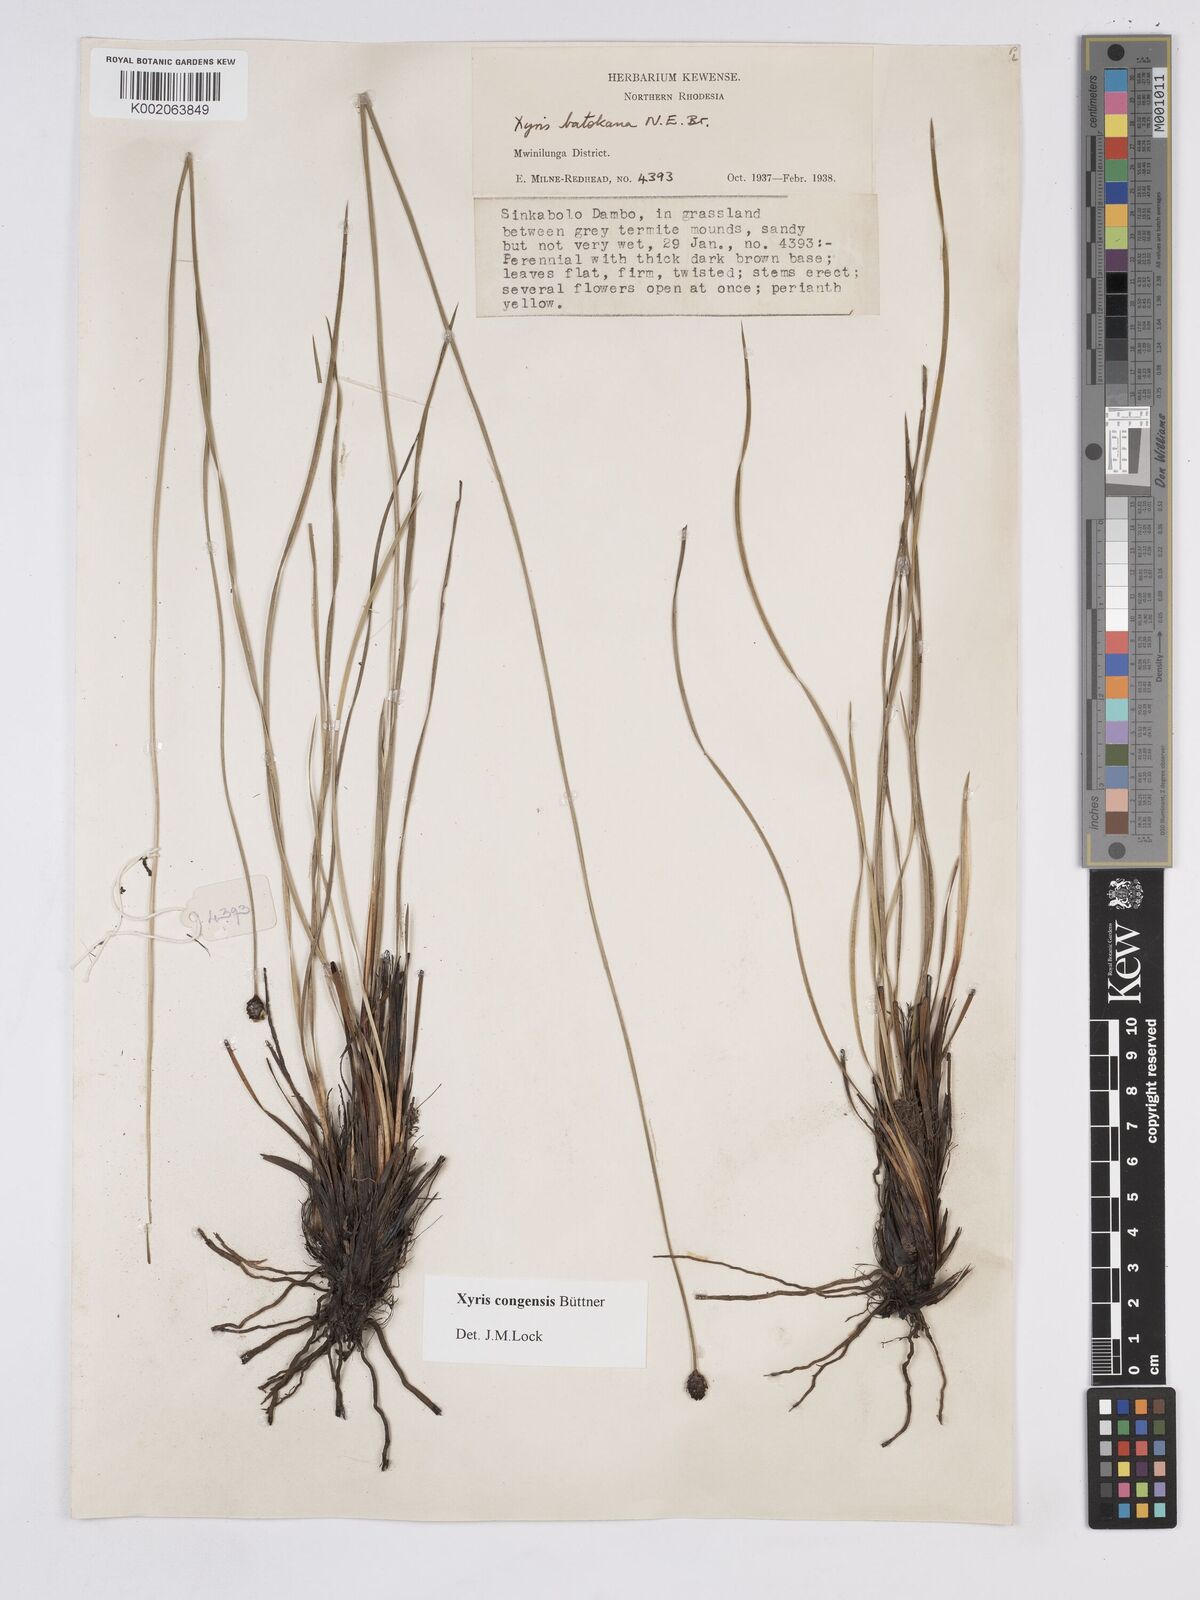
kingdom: Plantae
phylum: Tracheophyta
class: Liliopsida
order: Poales
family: Xyridaceae
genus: Xyris
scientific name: Xyris congensis
